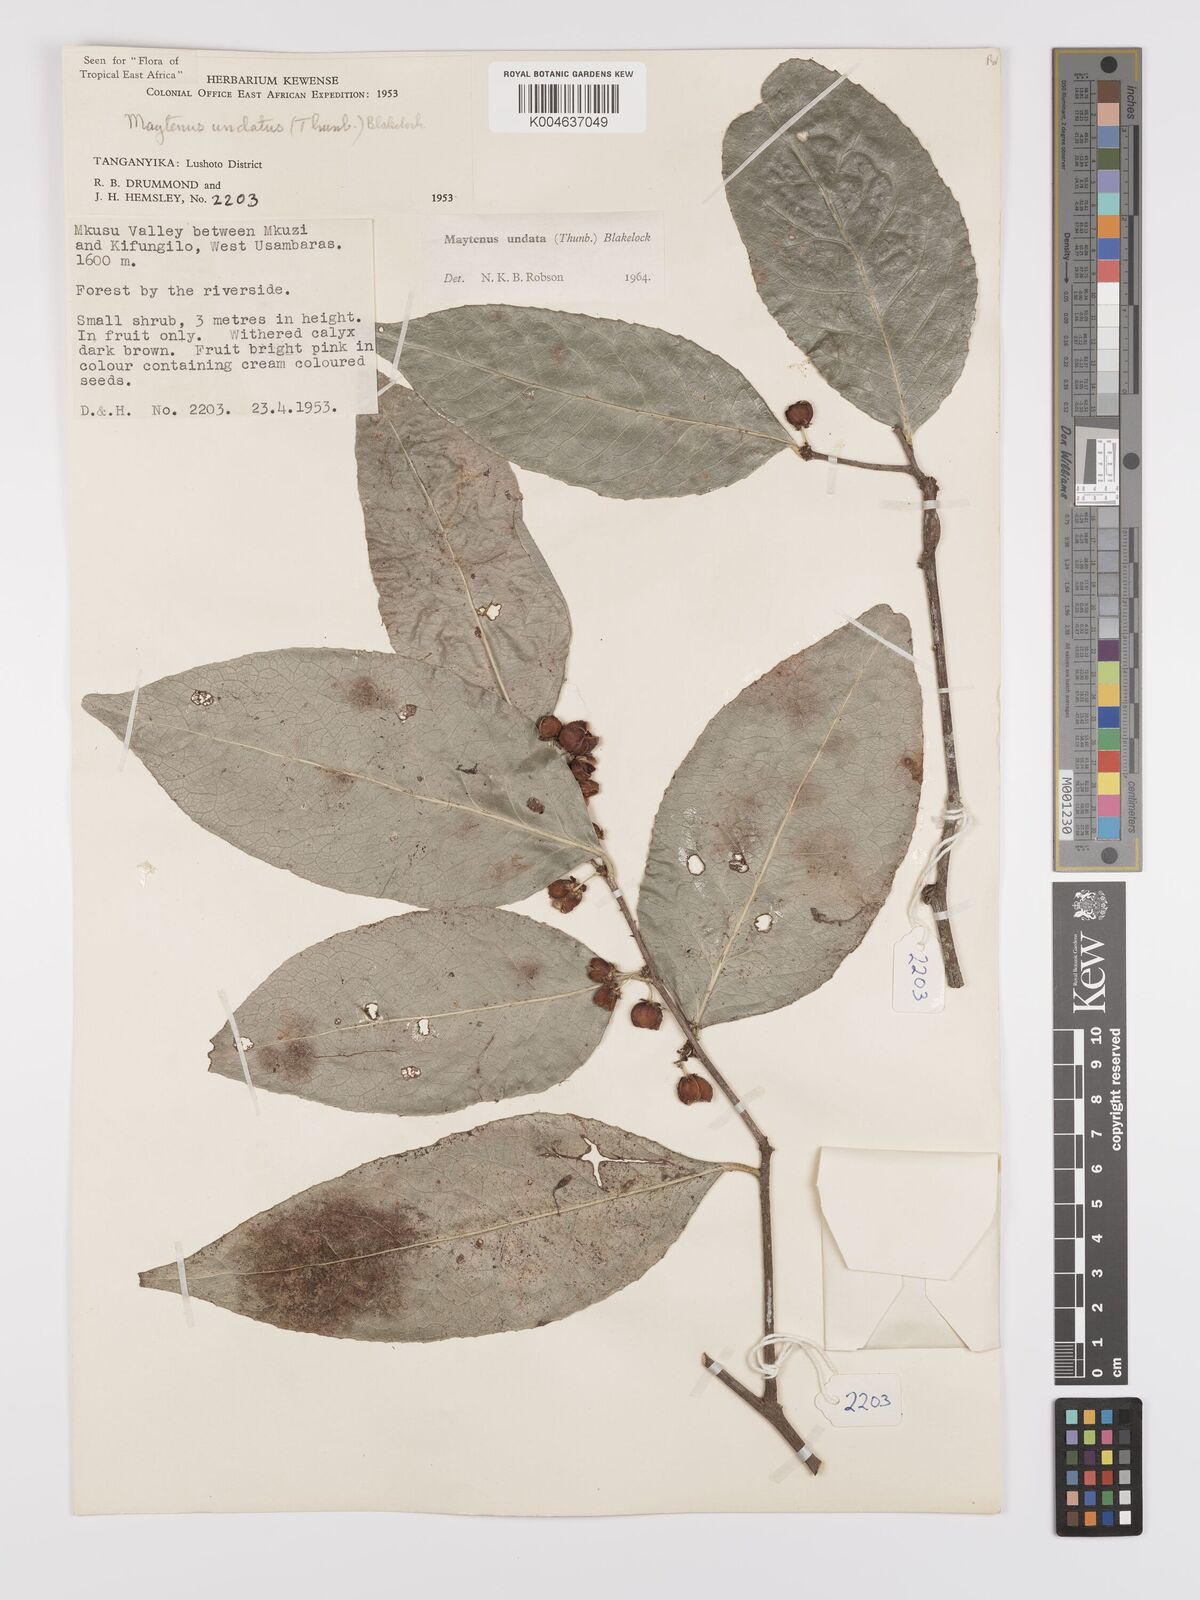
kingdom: Plantae
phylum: Tracheophyta
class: Magnoliopsida
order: Celastrales
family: Celastraceae
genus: Gymnosporia
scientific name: Gymnosporia undata
